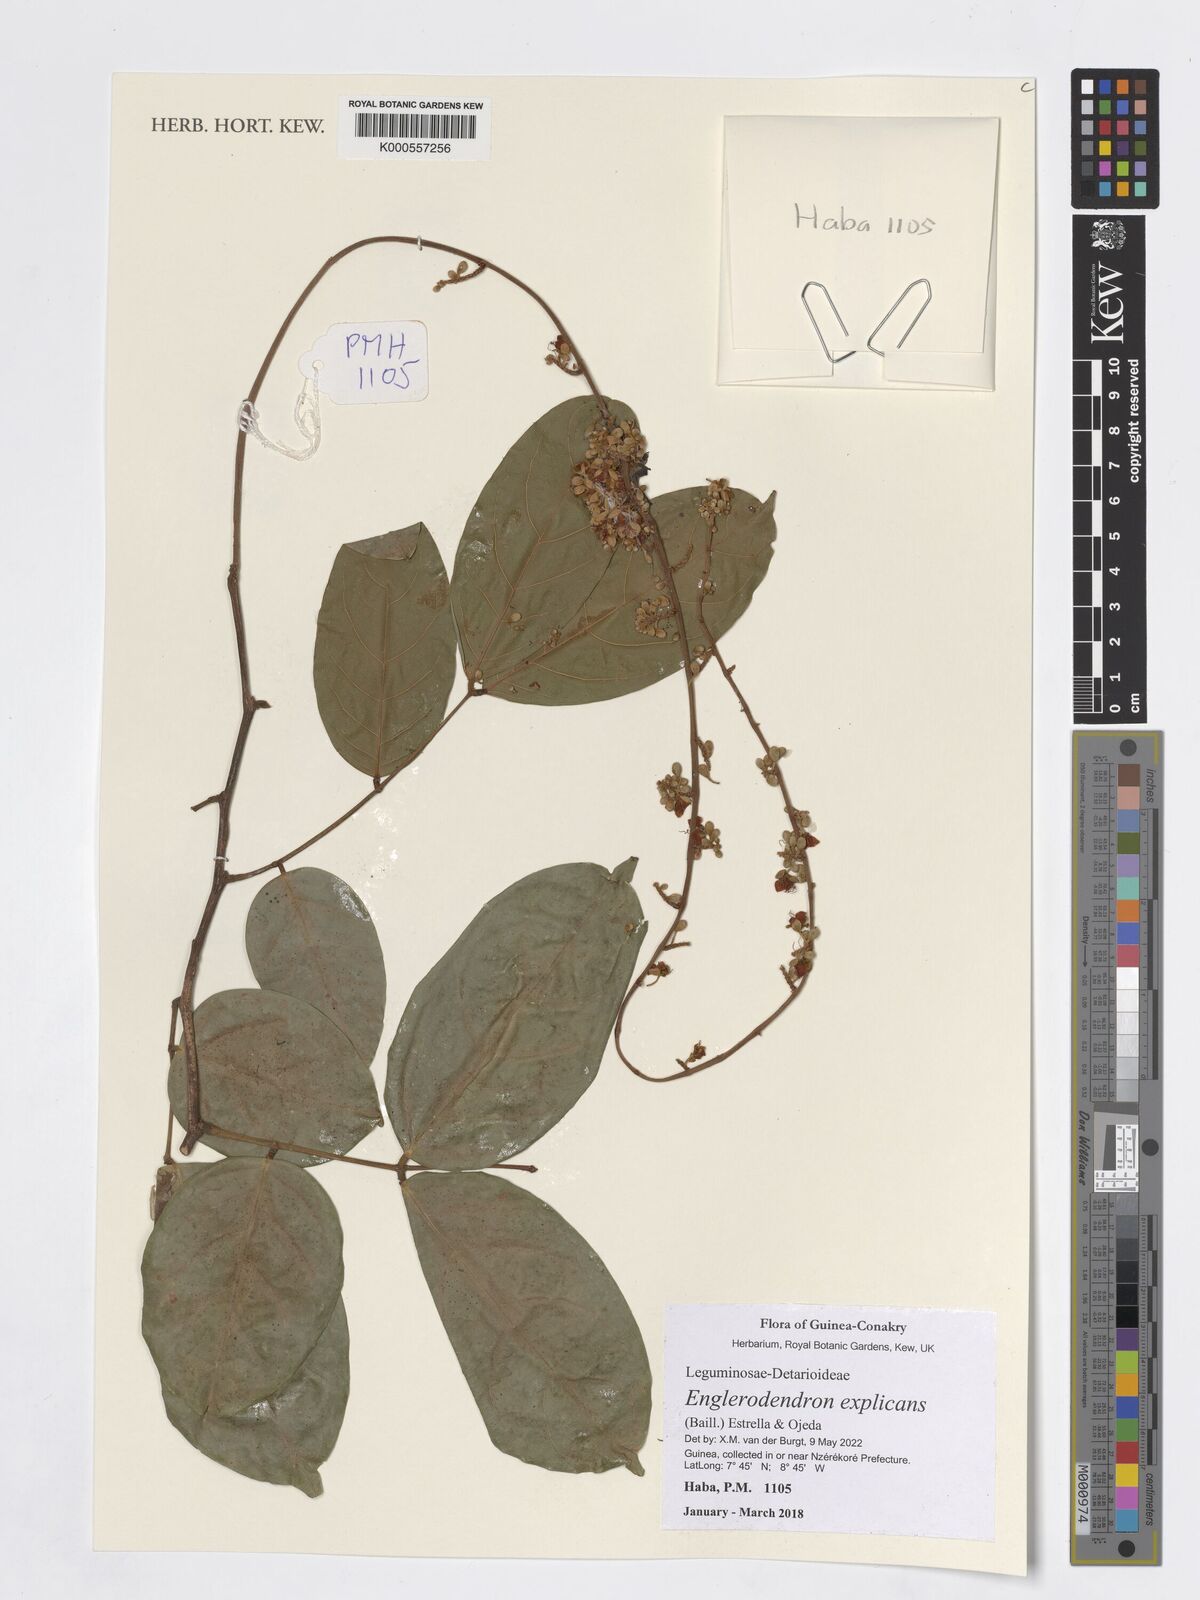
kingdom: Plantae
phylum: Tracheophyta
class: Magnoliopsida
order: Fabales
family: Fabaceae
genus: Englerodendron
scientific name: Englerodendron
